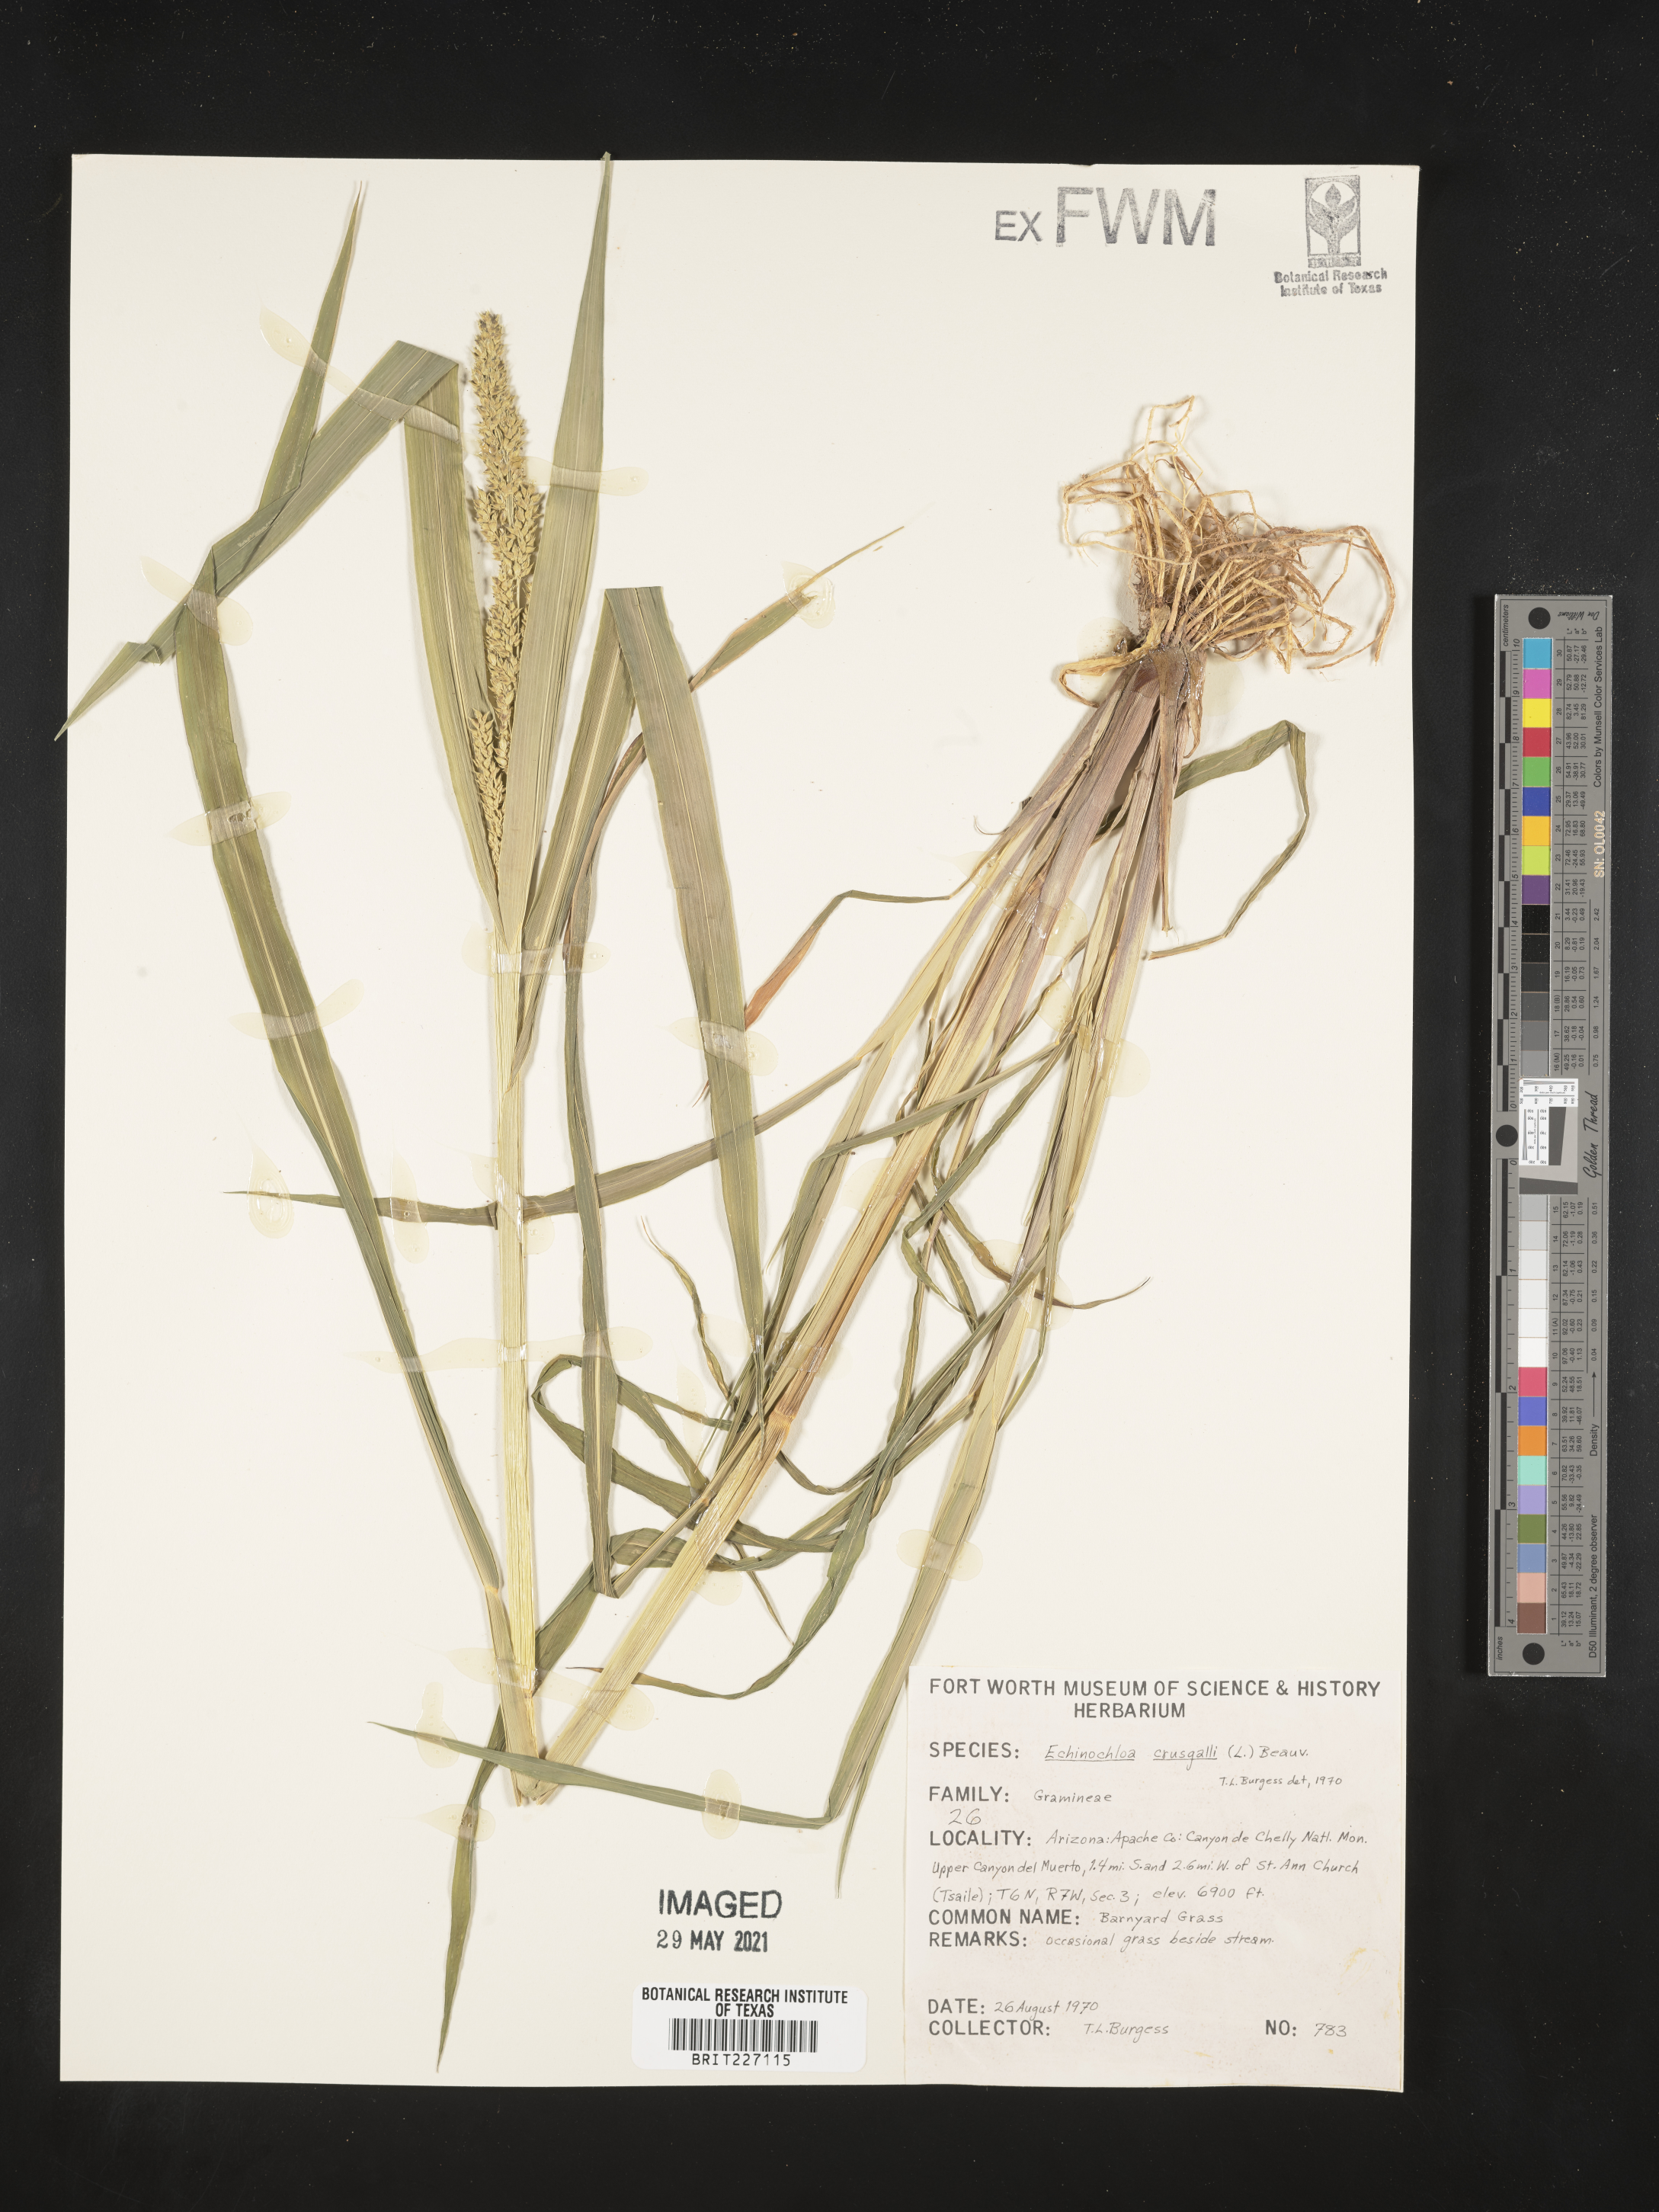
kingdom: Plantae
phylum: Tracheophyta
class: Liliopsida
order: Poales
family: Poaceae
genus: Echinochloa
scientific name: Echinochloa
